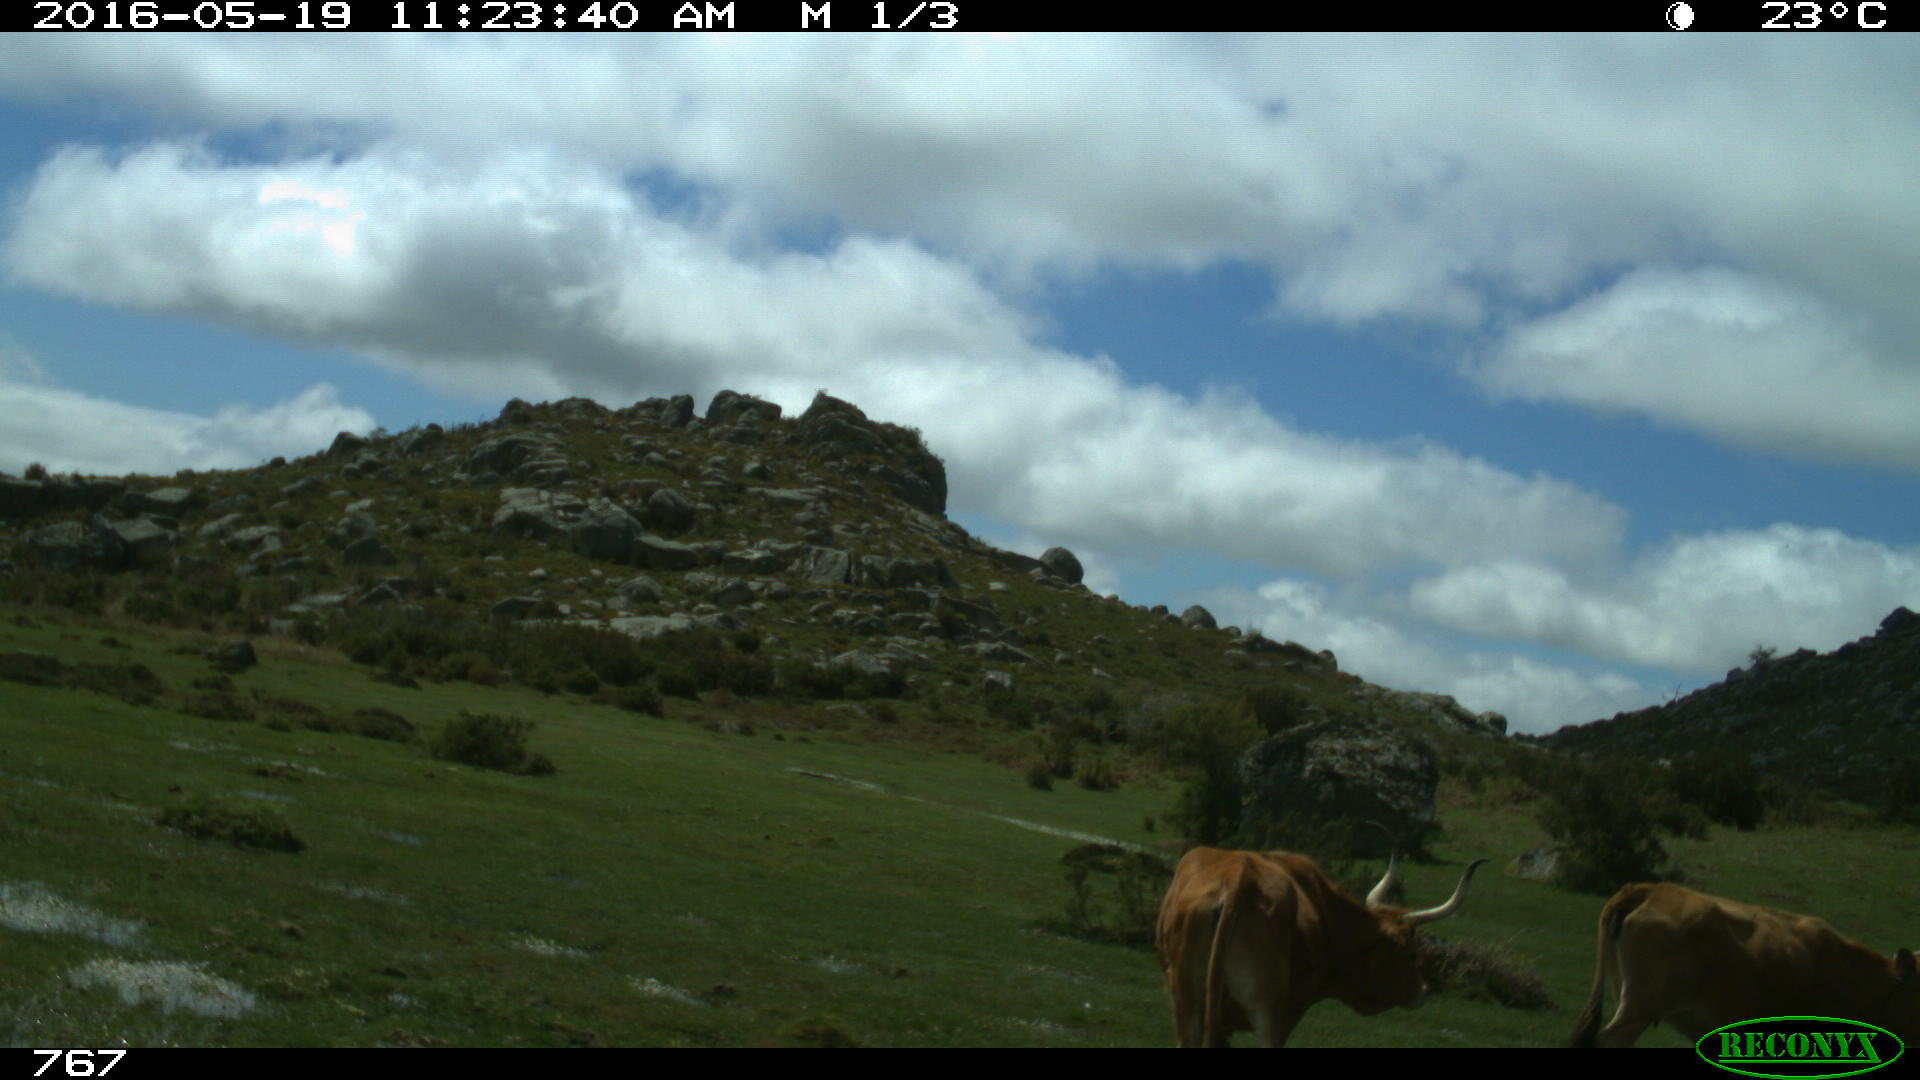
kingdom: Animalia
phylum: Chordata
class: Mammalia
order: Artiodactyla
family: Bovidae
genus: Bos
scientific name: Bos taurus
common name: Domesticated cattle
